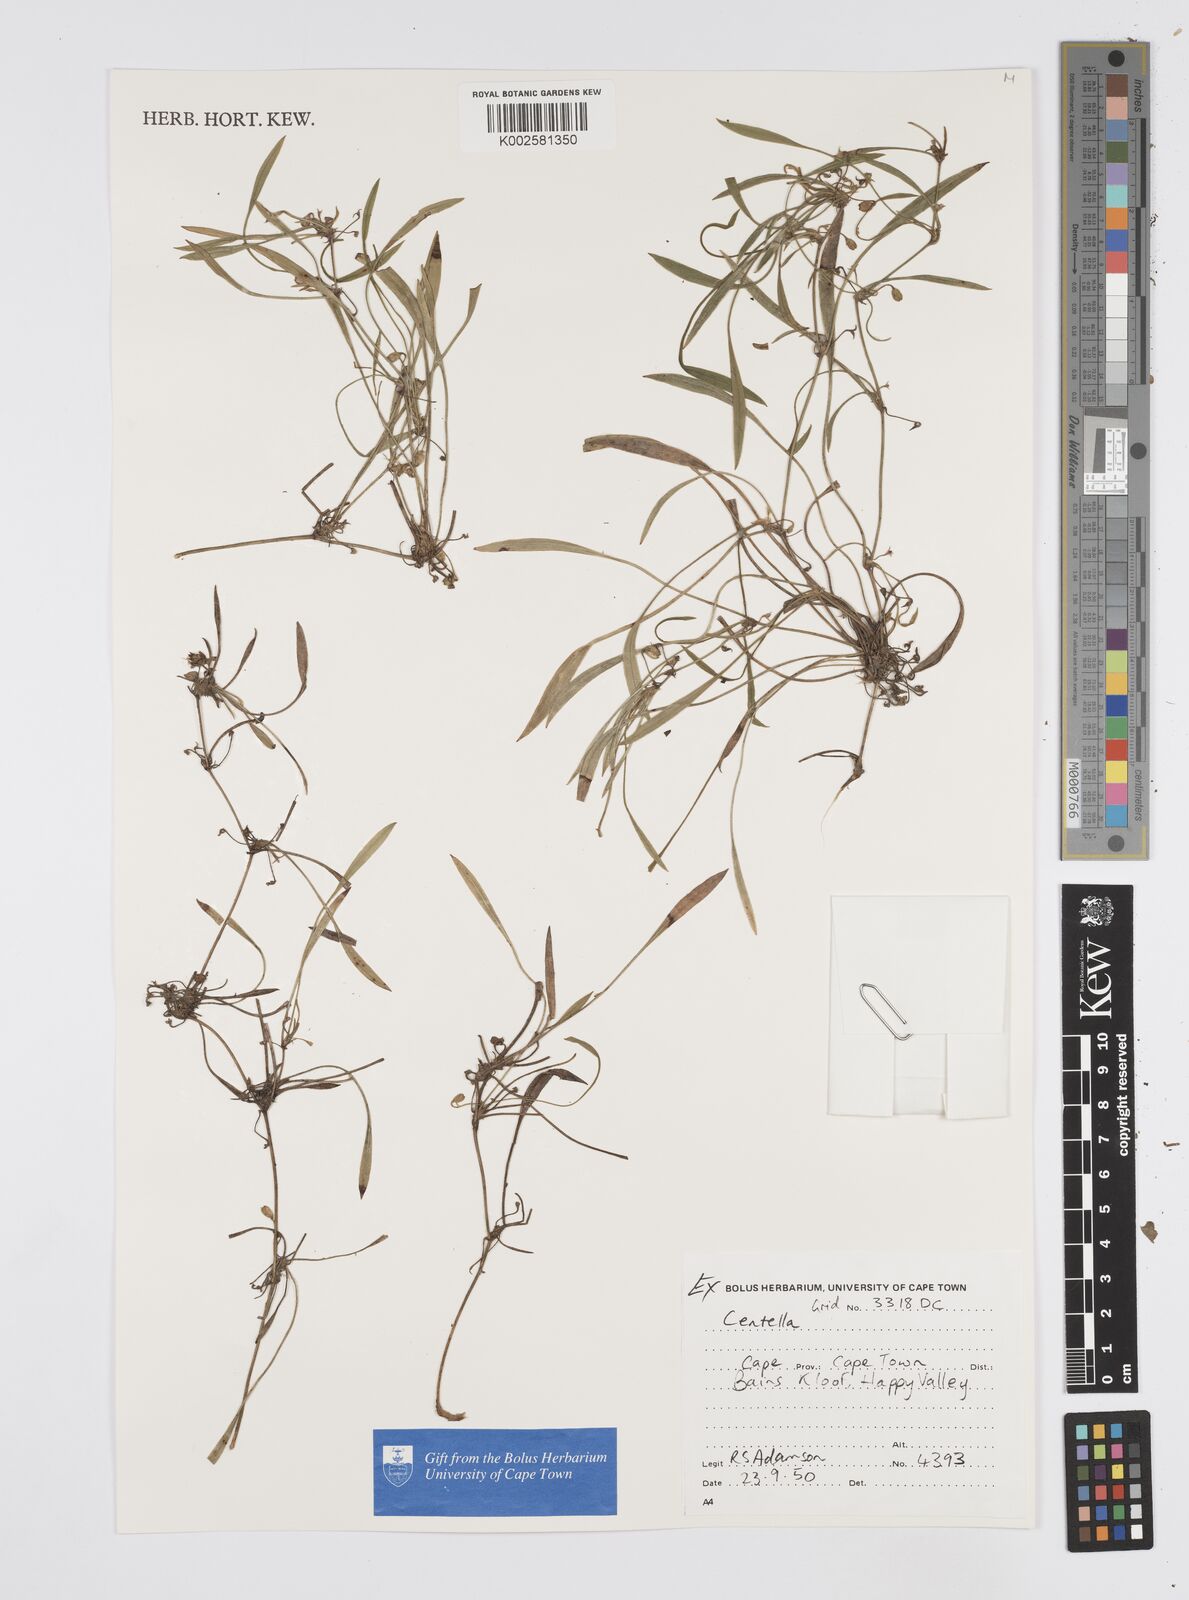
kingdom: Plantae
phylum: Tracheophyta
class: Magnoliopsida
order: Apiales
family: Apiaceae
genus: Centella
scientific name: Centella
